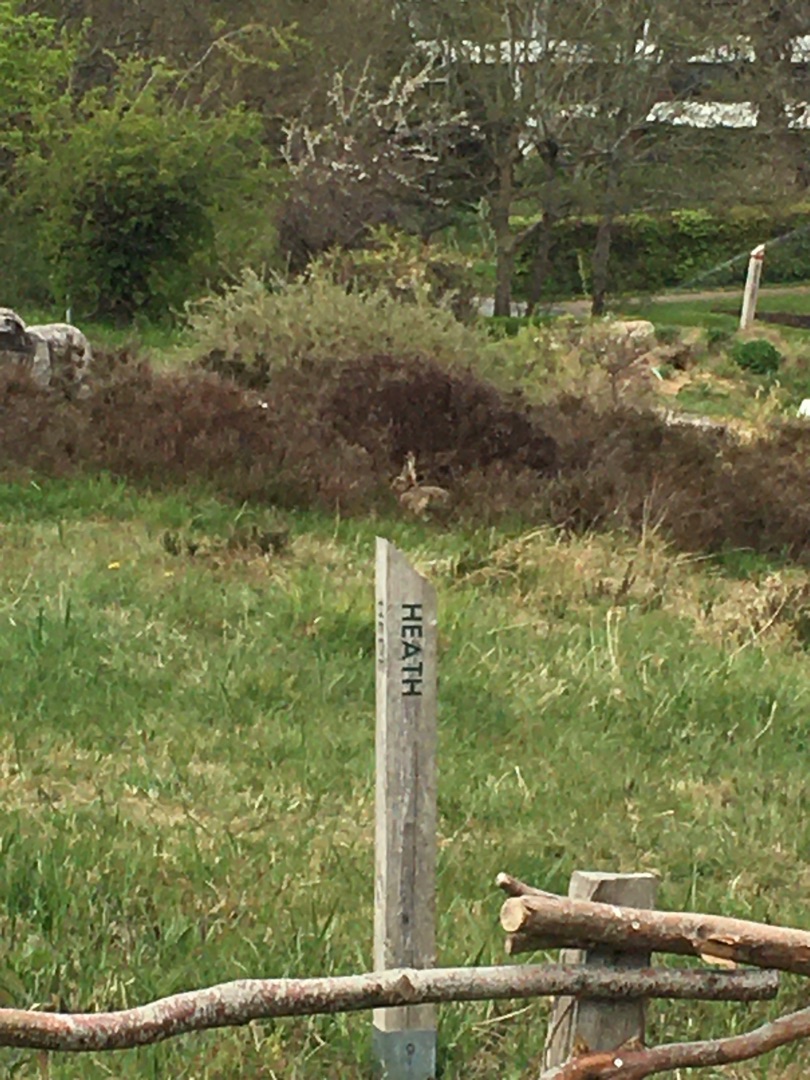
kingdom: Animalia
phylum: Chordata
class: Mammalia
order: Lagomorpha
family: Leporidae
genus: Lepus
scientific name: Lepus europaeus
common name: Hare
